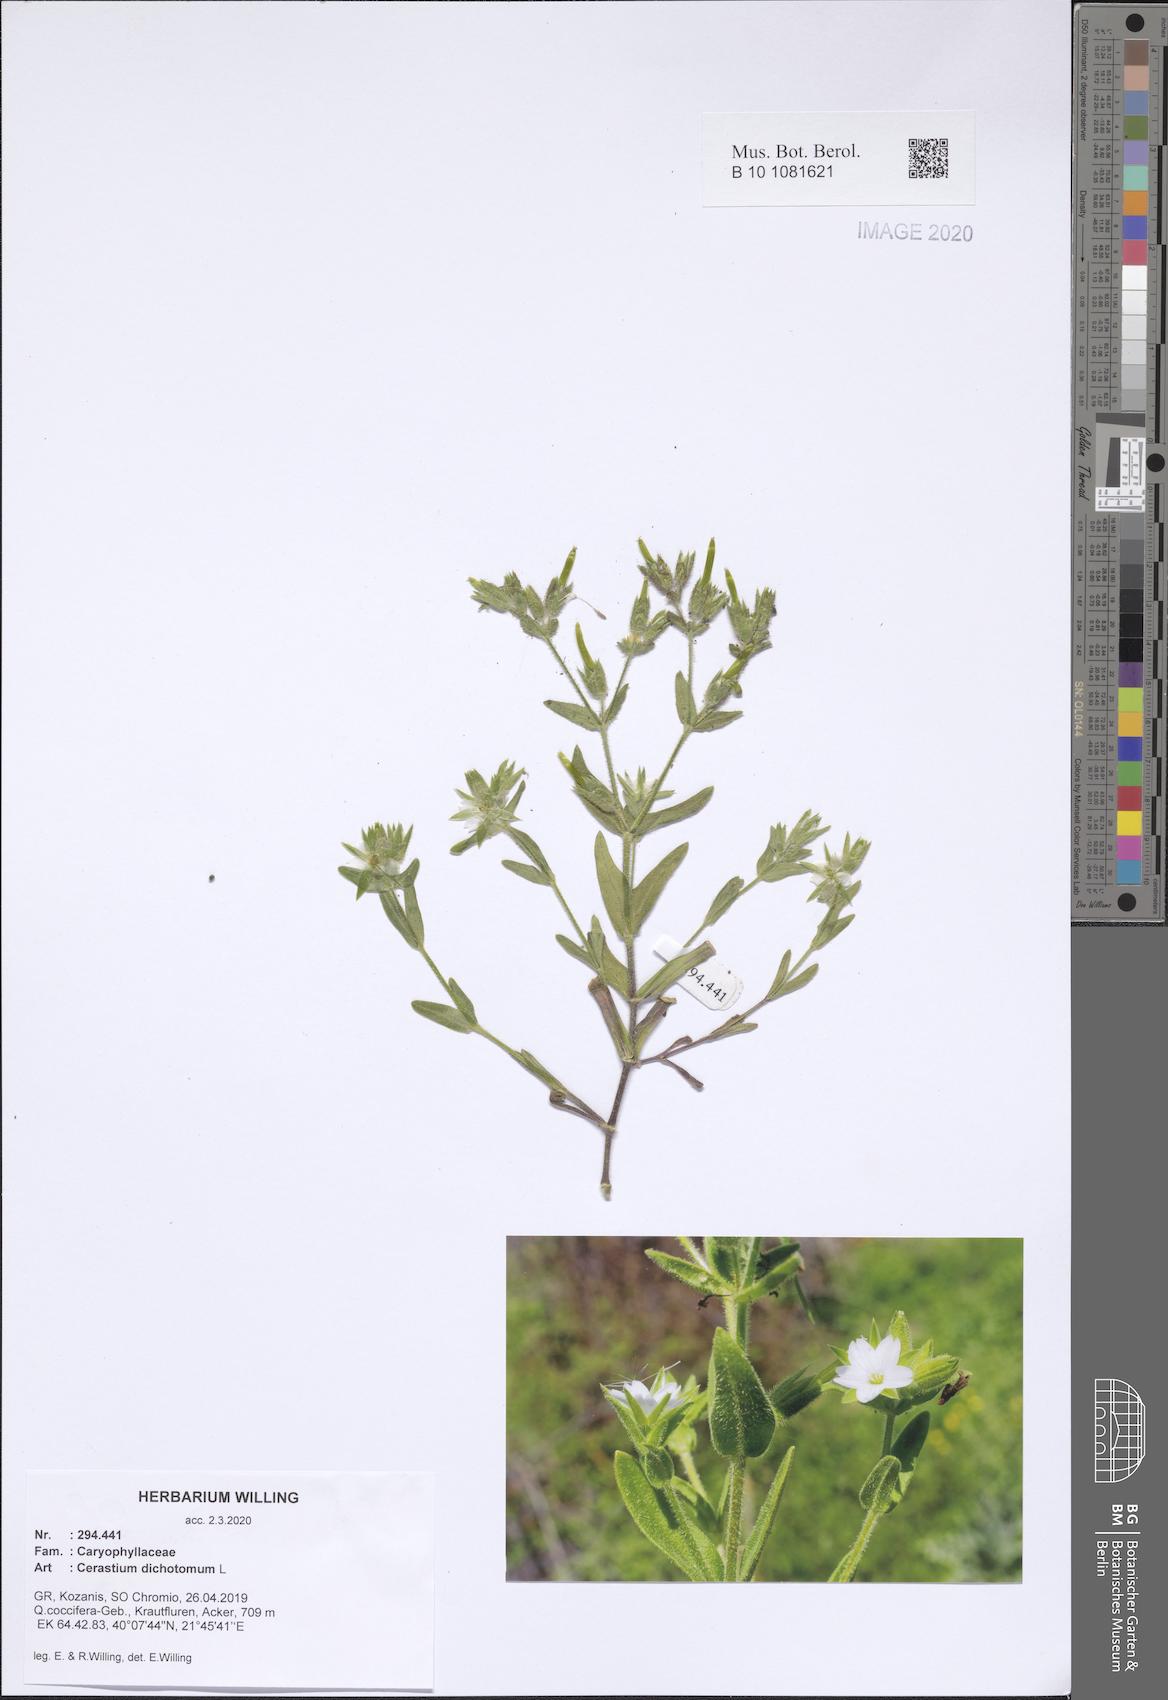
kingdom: Plantae
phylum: Tracheophyta
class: Magnoliopsida
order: Caryophyllales
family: Caryophyllaceae
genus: Cerastium
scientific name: Cerastium dichotomum
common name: Forked chickweed
